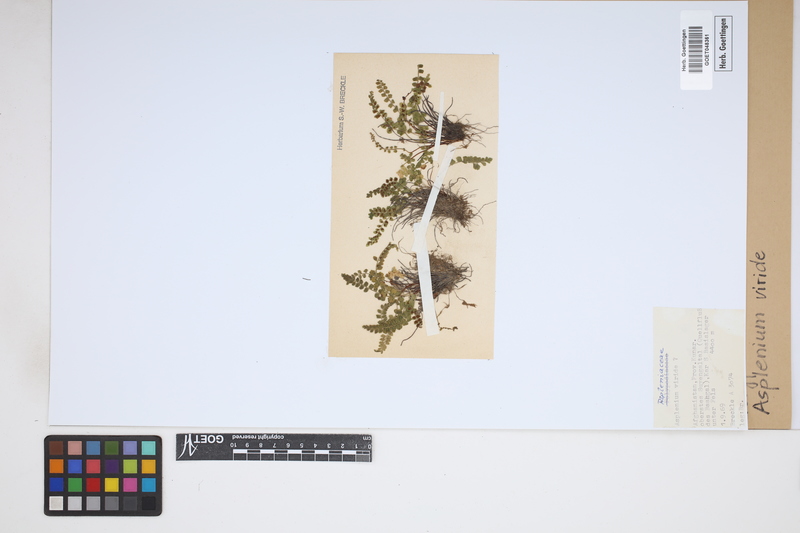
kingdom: Plantae
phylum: Tracheophyta
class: Polypodiopsida
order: Polypodiales
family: Aspleniaceae
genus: Asplenium
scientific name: Asplenium viride
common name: Green spleenwort
